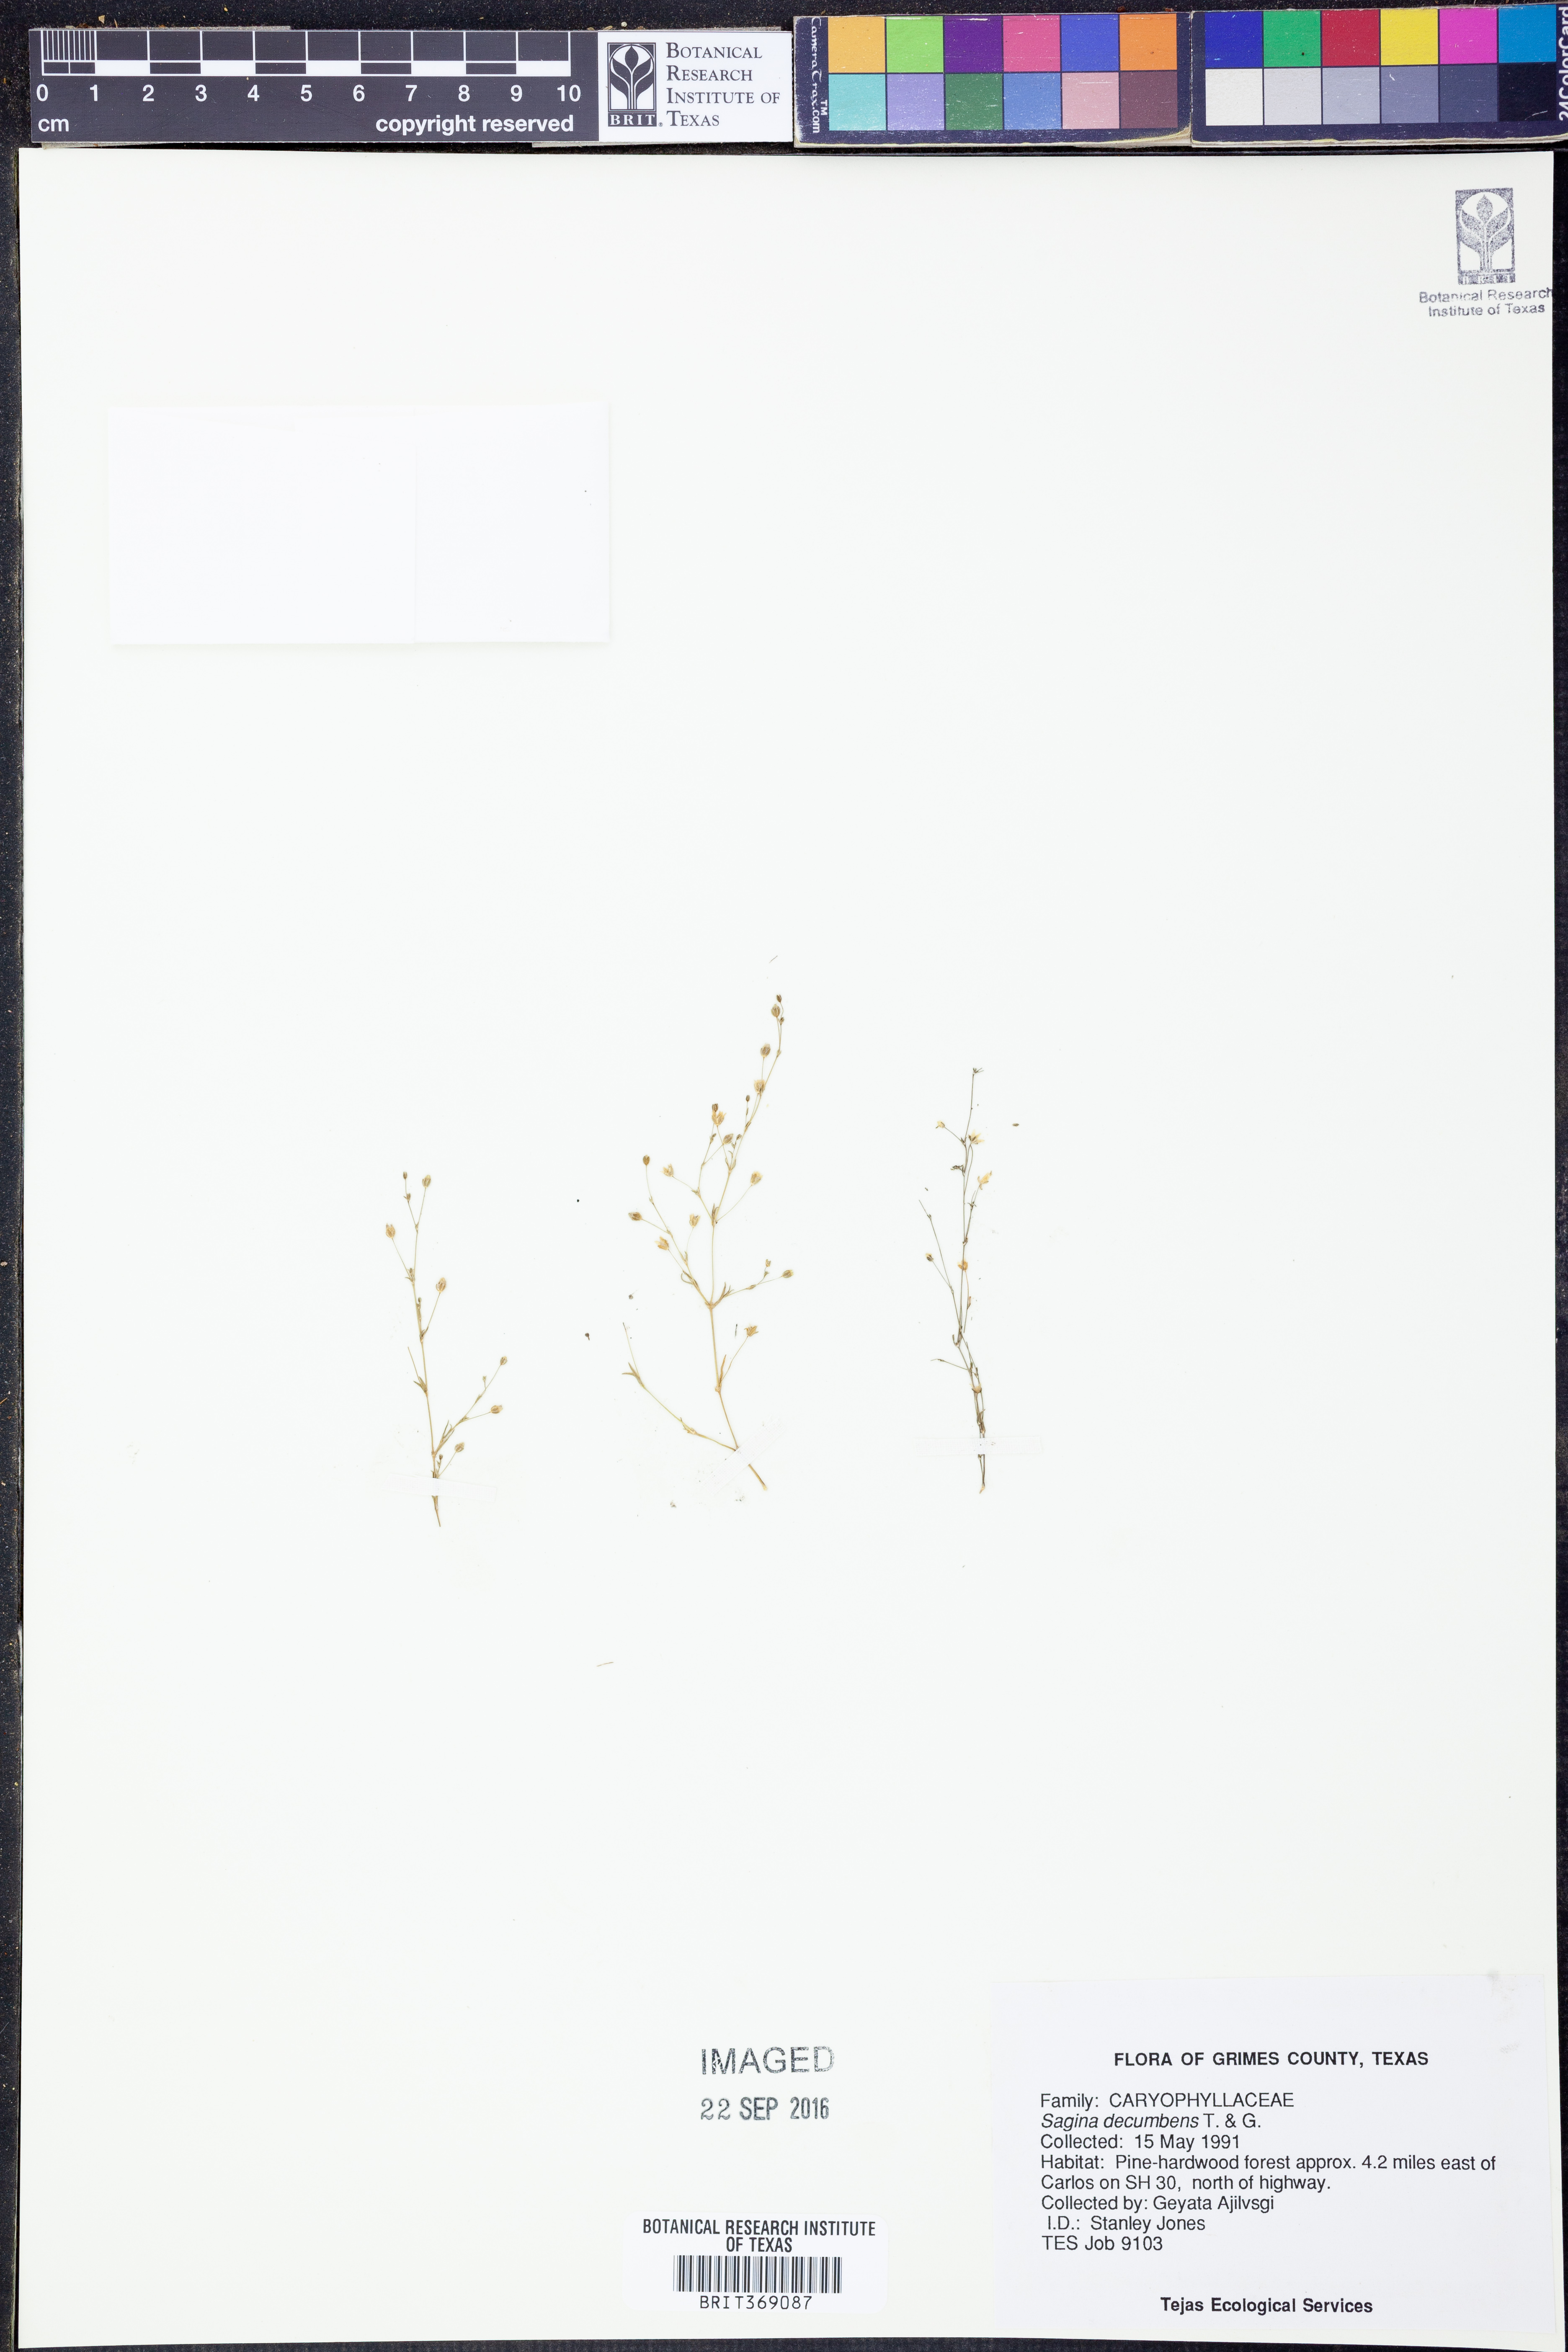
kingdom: Plantae
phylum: Tracheophyta
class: Magnoliopsida
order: Caryophyllales
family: Caryophyllaceae
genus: Sagina
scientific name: Sagina decumbens
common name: Decumbent pearlwort
